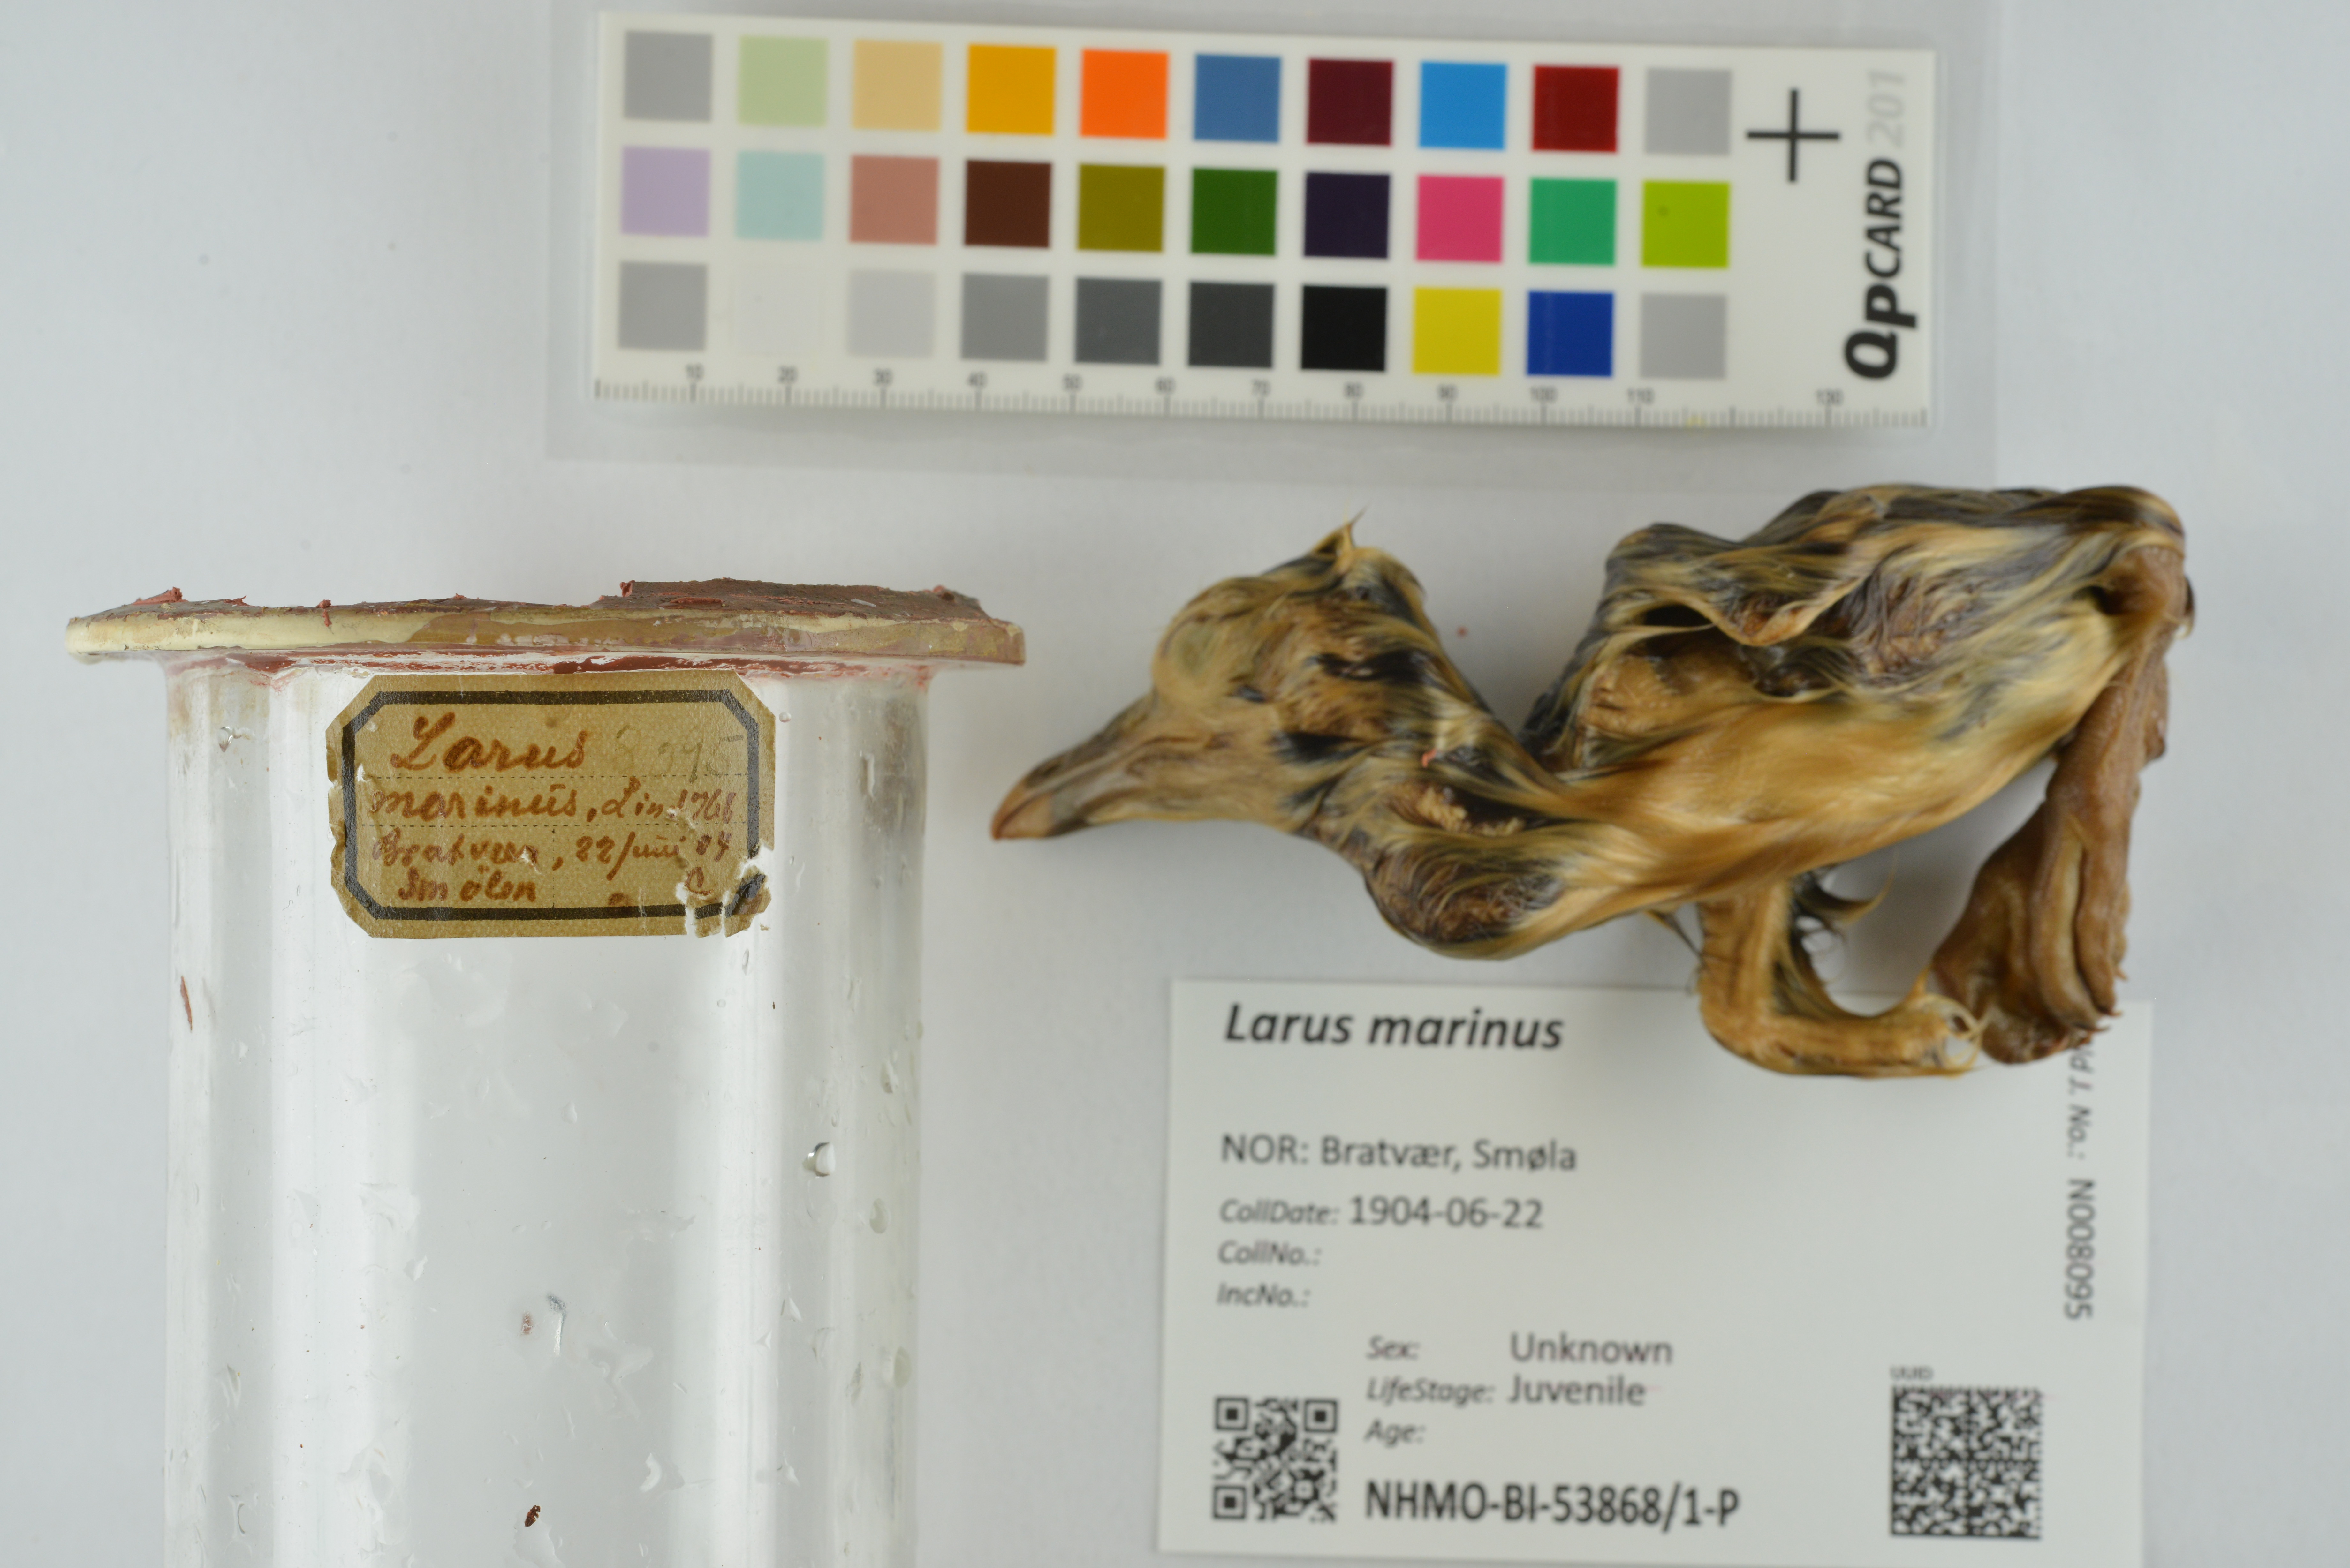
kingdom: Animalia
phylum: Chordata
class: Aves
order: Charadriiformes
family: Laridae
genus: Larus
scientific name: Larus marinus
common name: Great black-backed gull
